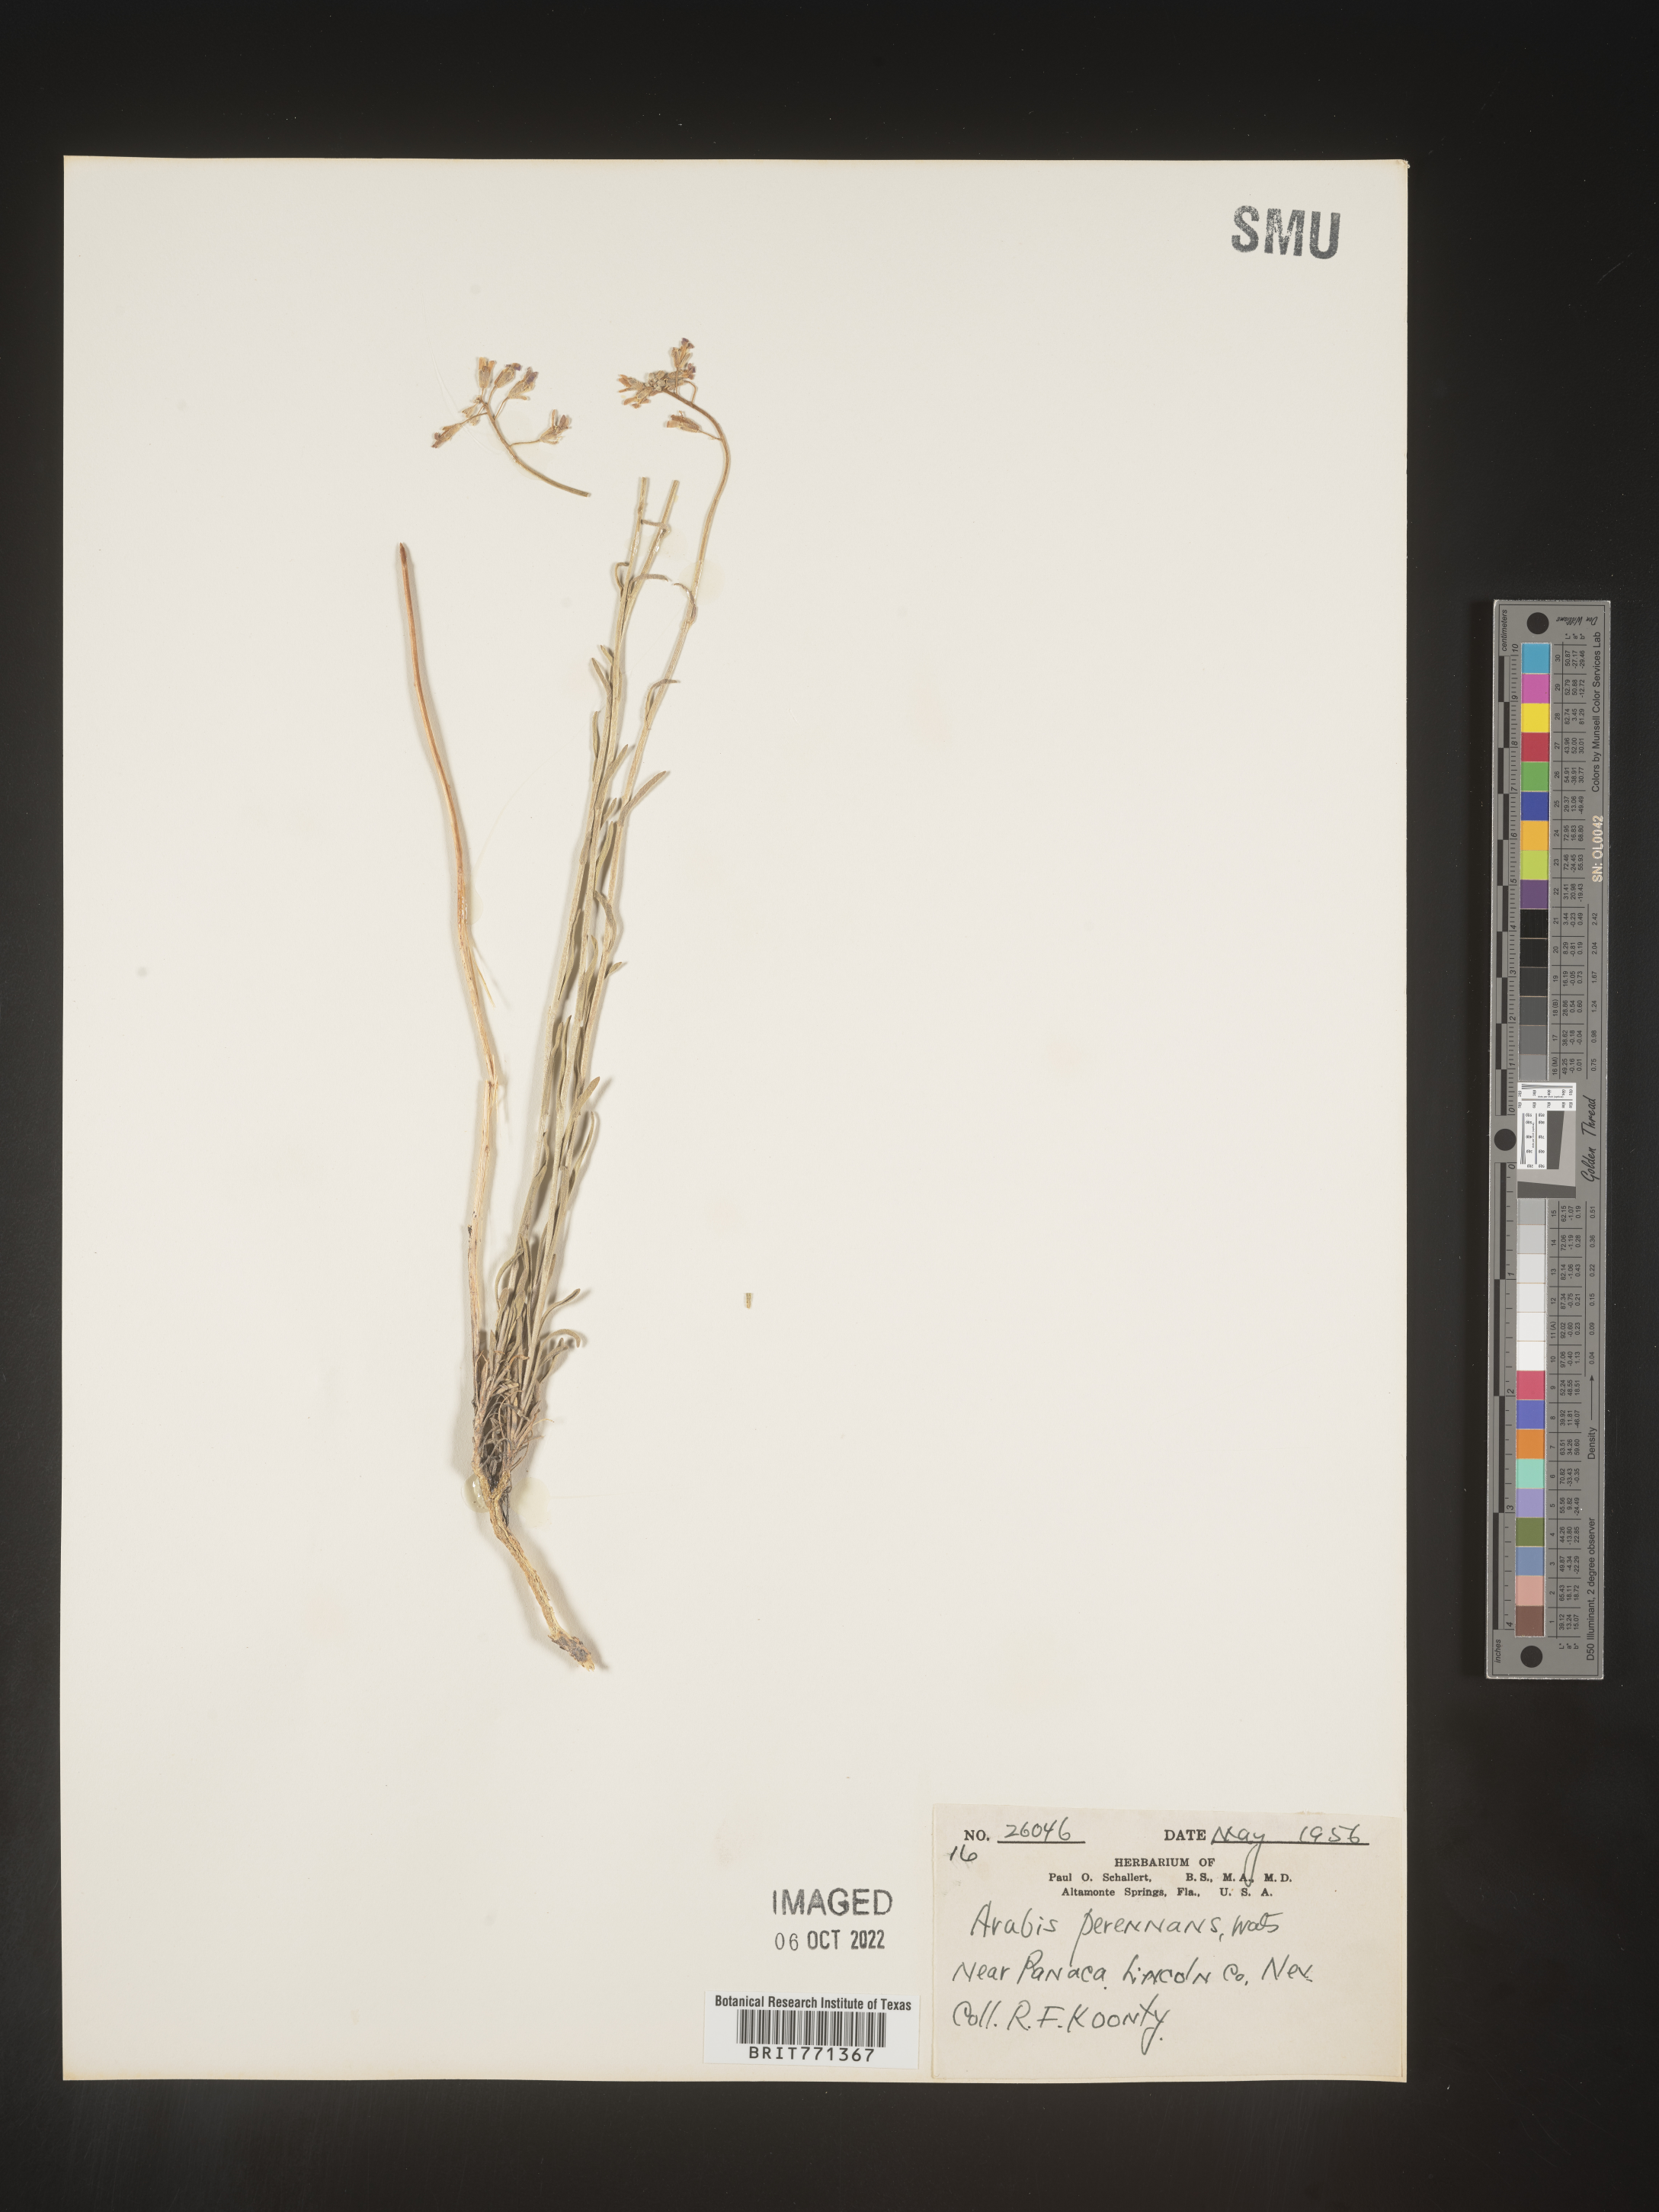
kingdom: Plantae
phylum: Tracheophyta
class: Magnoliopsida
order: Brassicales
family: Brassicaceae
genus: Arabis
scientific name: Arabis
